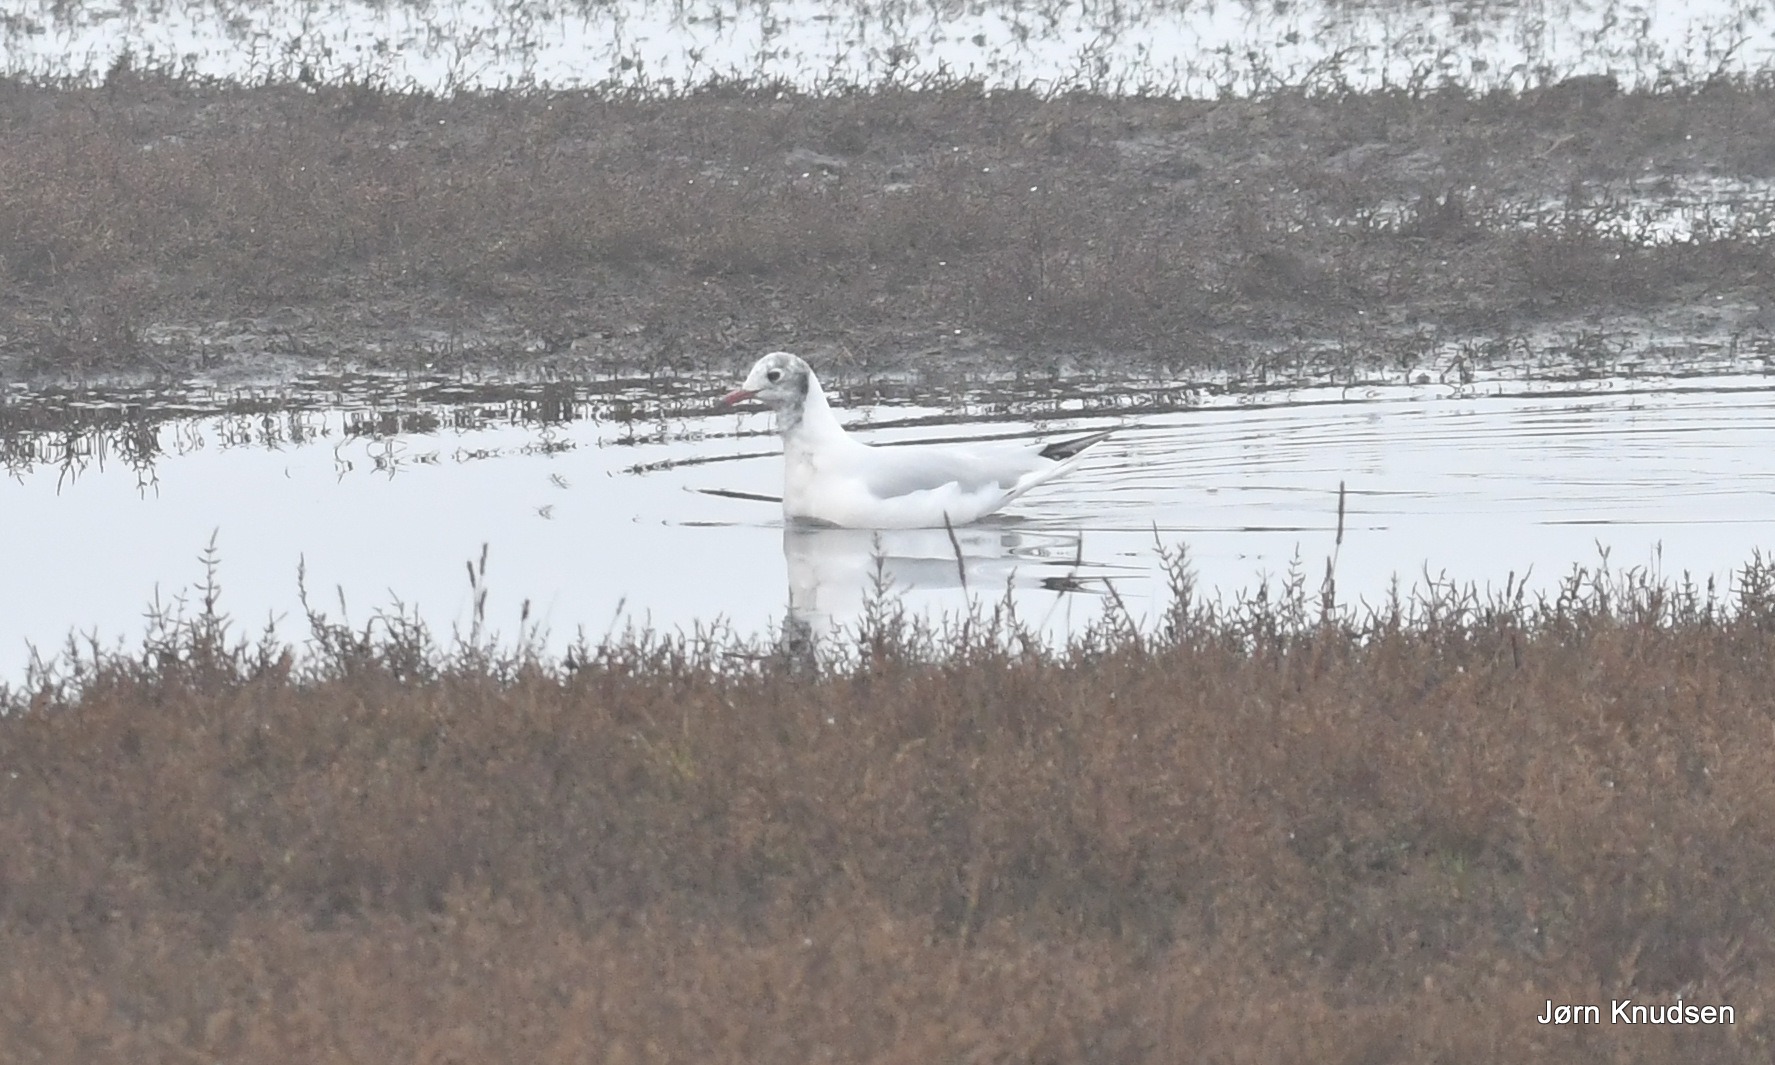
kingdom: Animalia
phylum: Chordata
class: Aves
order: Charadriiformes
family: Laridae
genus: Chroicocephalus
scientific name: Chroicocephalus ridibundus
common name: Hættemåge
